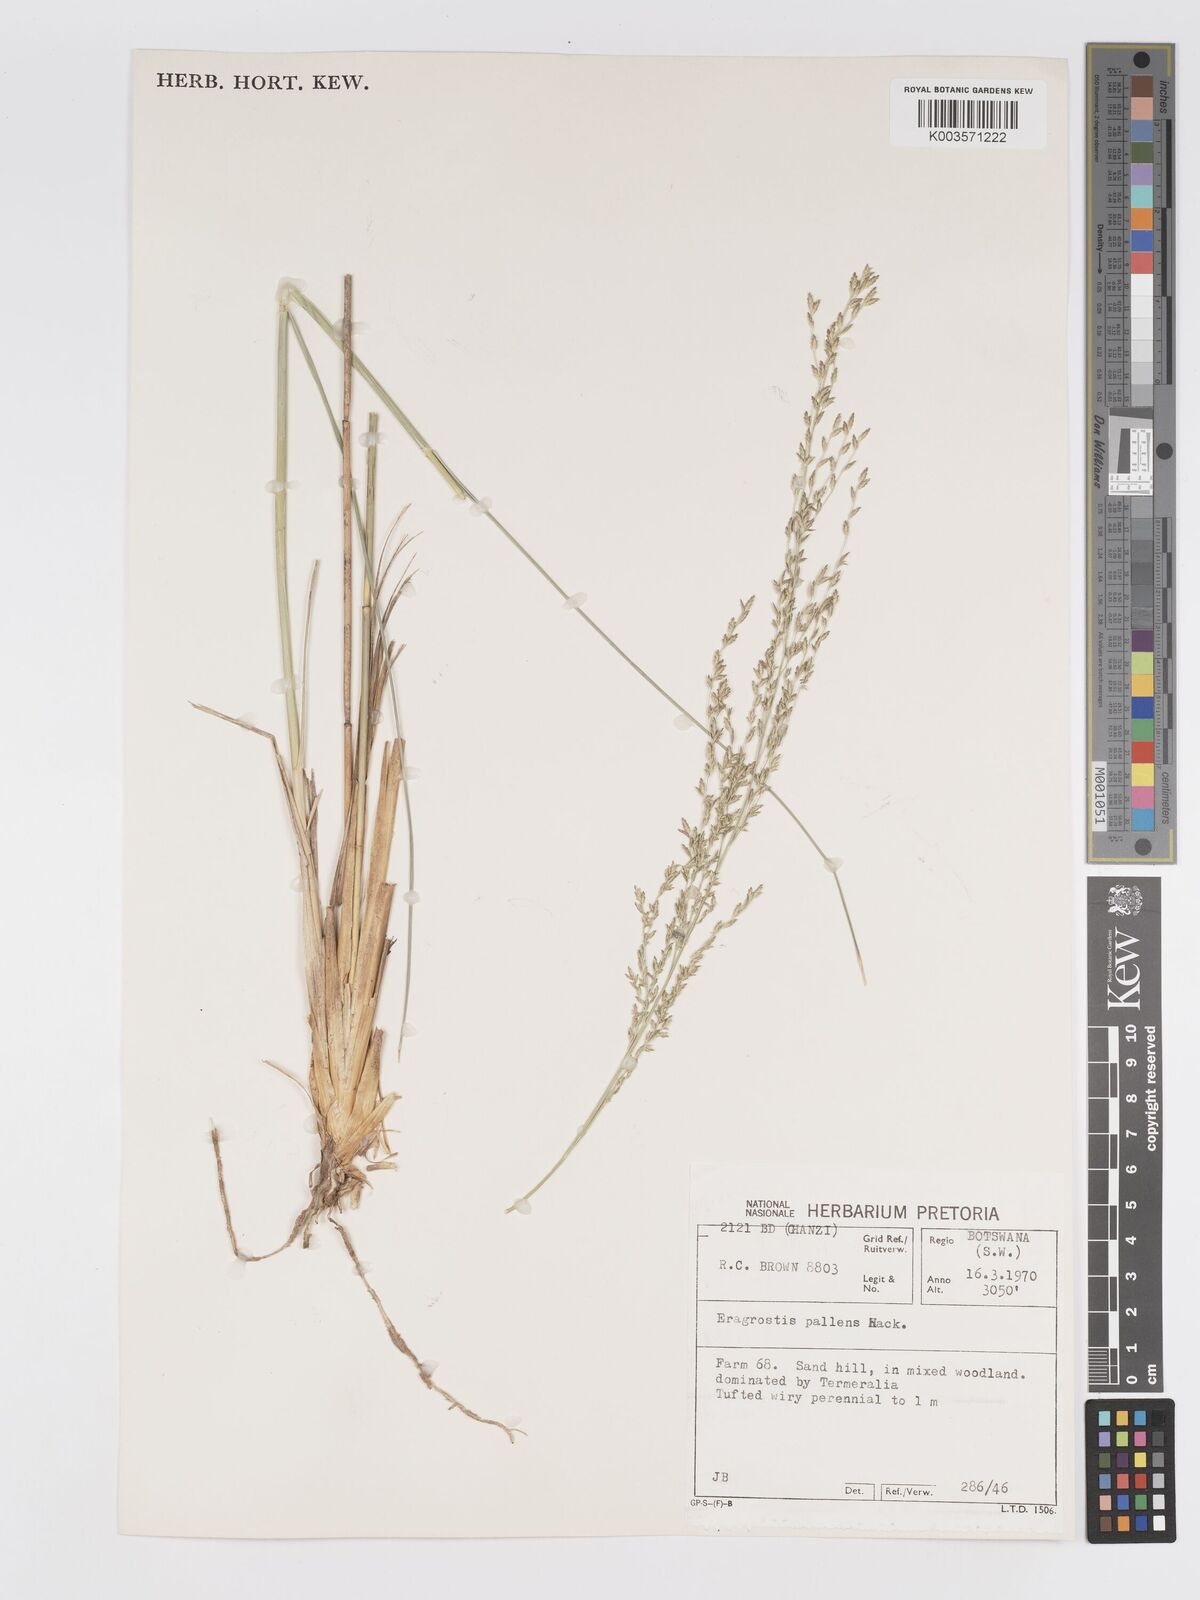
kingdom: Plantae
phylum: Tracheophyta
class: Liliopsida
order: Poales
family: Poaceae
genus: Eragrostis
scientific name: Eragrostis pallens
